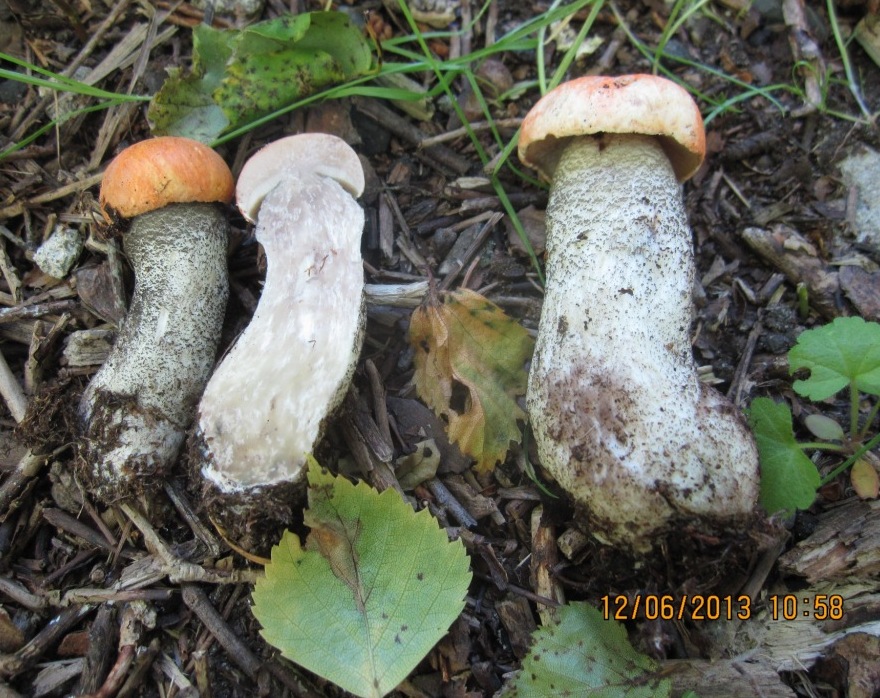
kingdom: Fungi
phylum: Basidiomycota
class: Agaricomycetes
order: Boletales
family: Boletaceae
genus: Leccinum
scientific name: Leccinum versipelle
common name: orange skælrørhat
